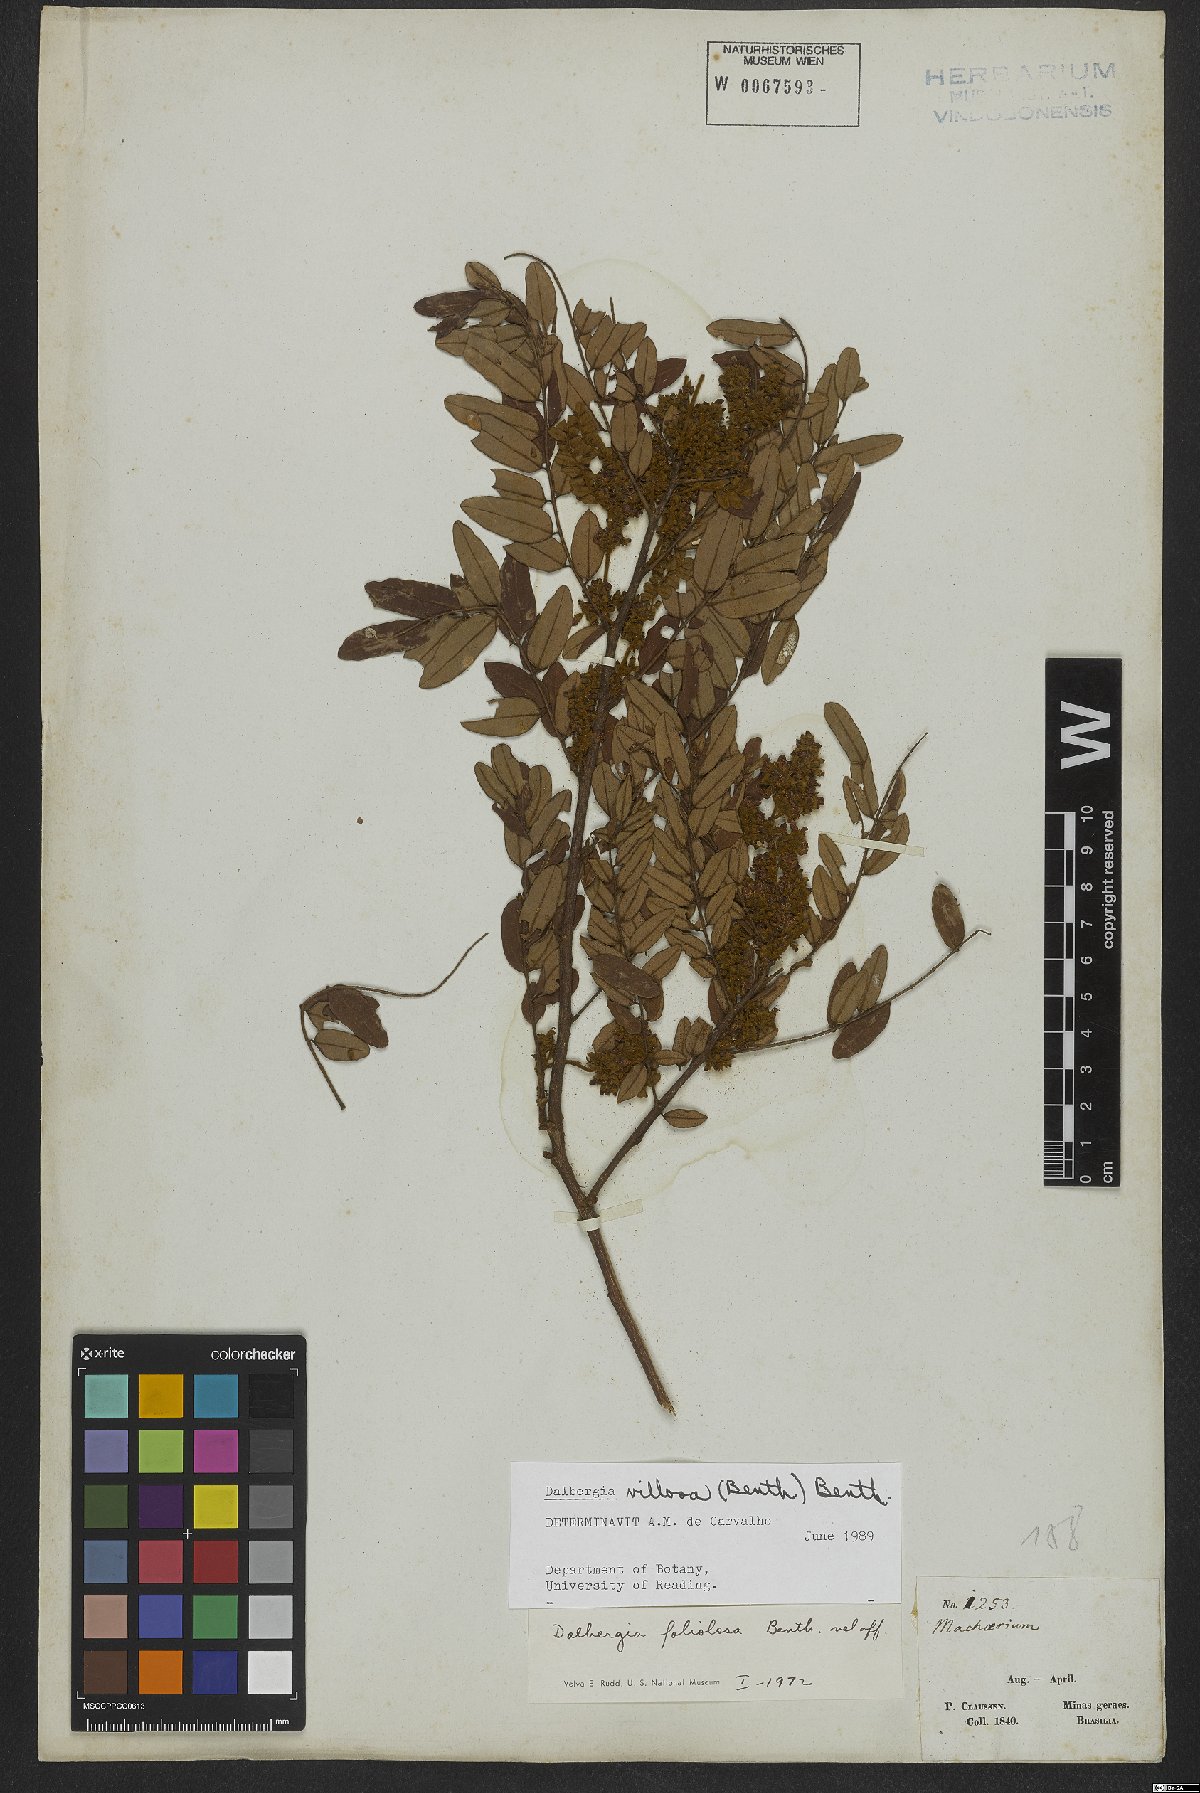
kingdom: Plantae
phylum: Tracheophyta
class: Magnoliopsida
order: Fabales
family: Fabaceae
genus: Dalbergia
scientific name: Dalbergia villosa
